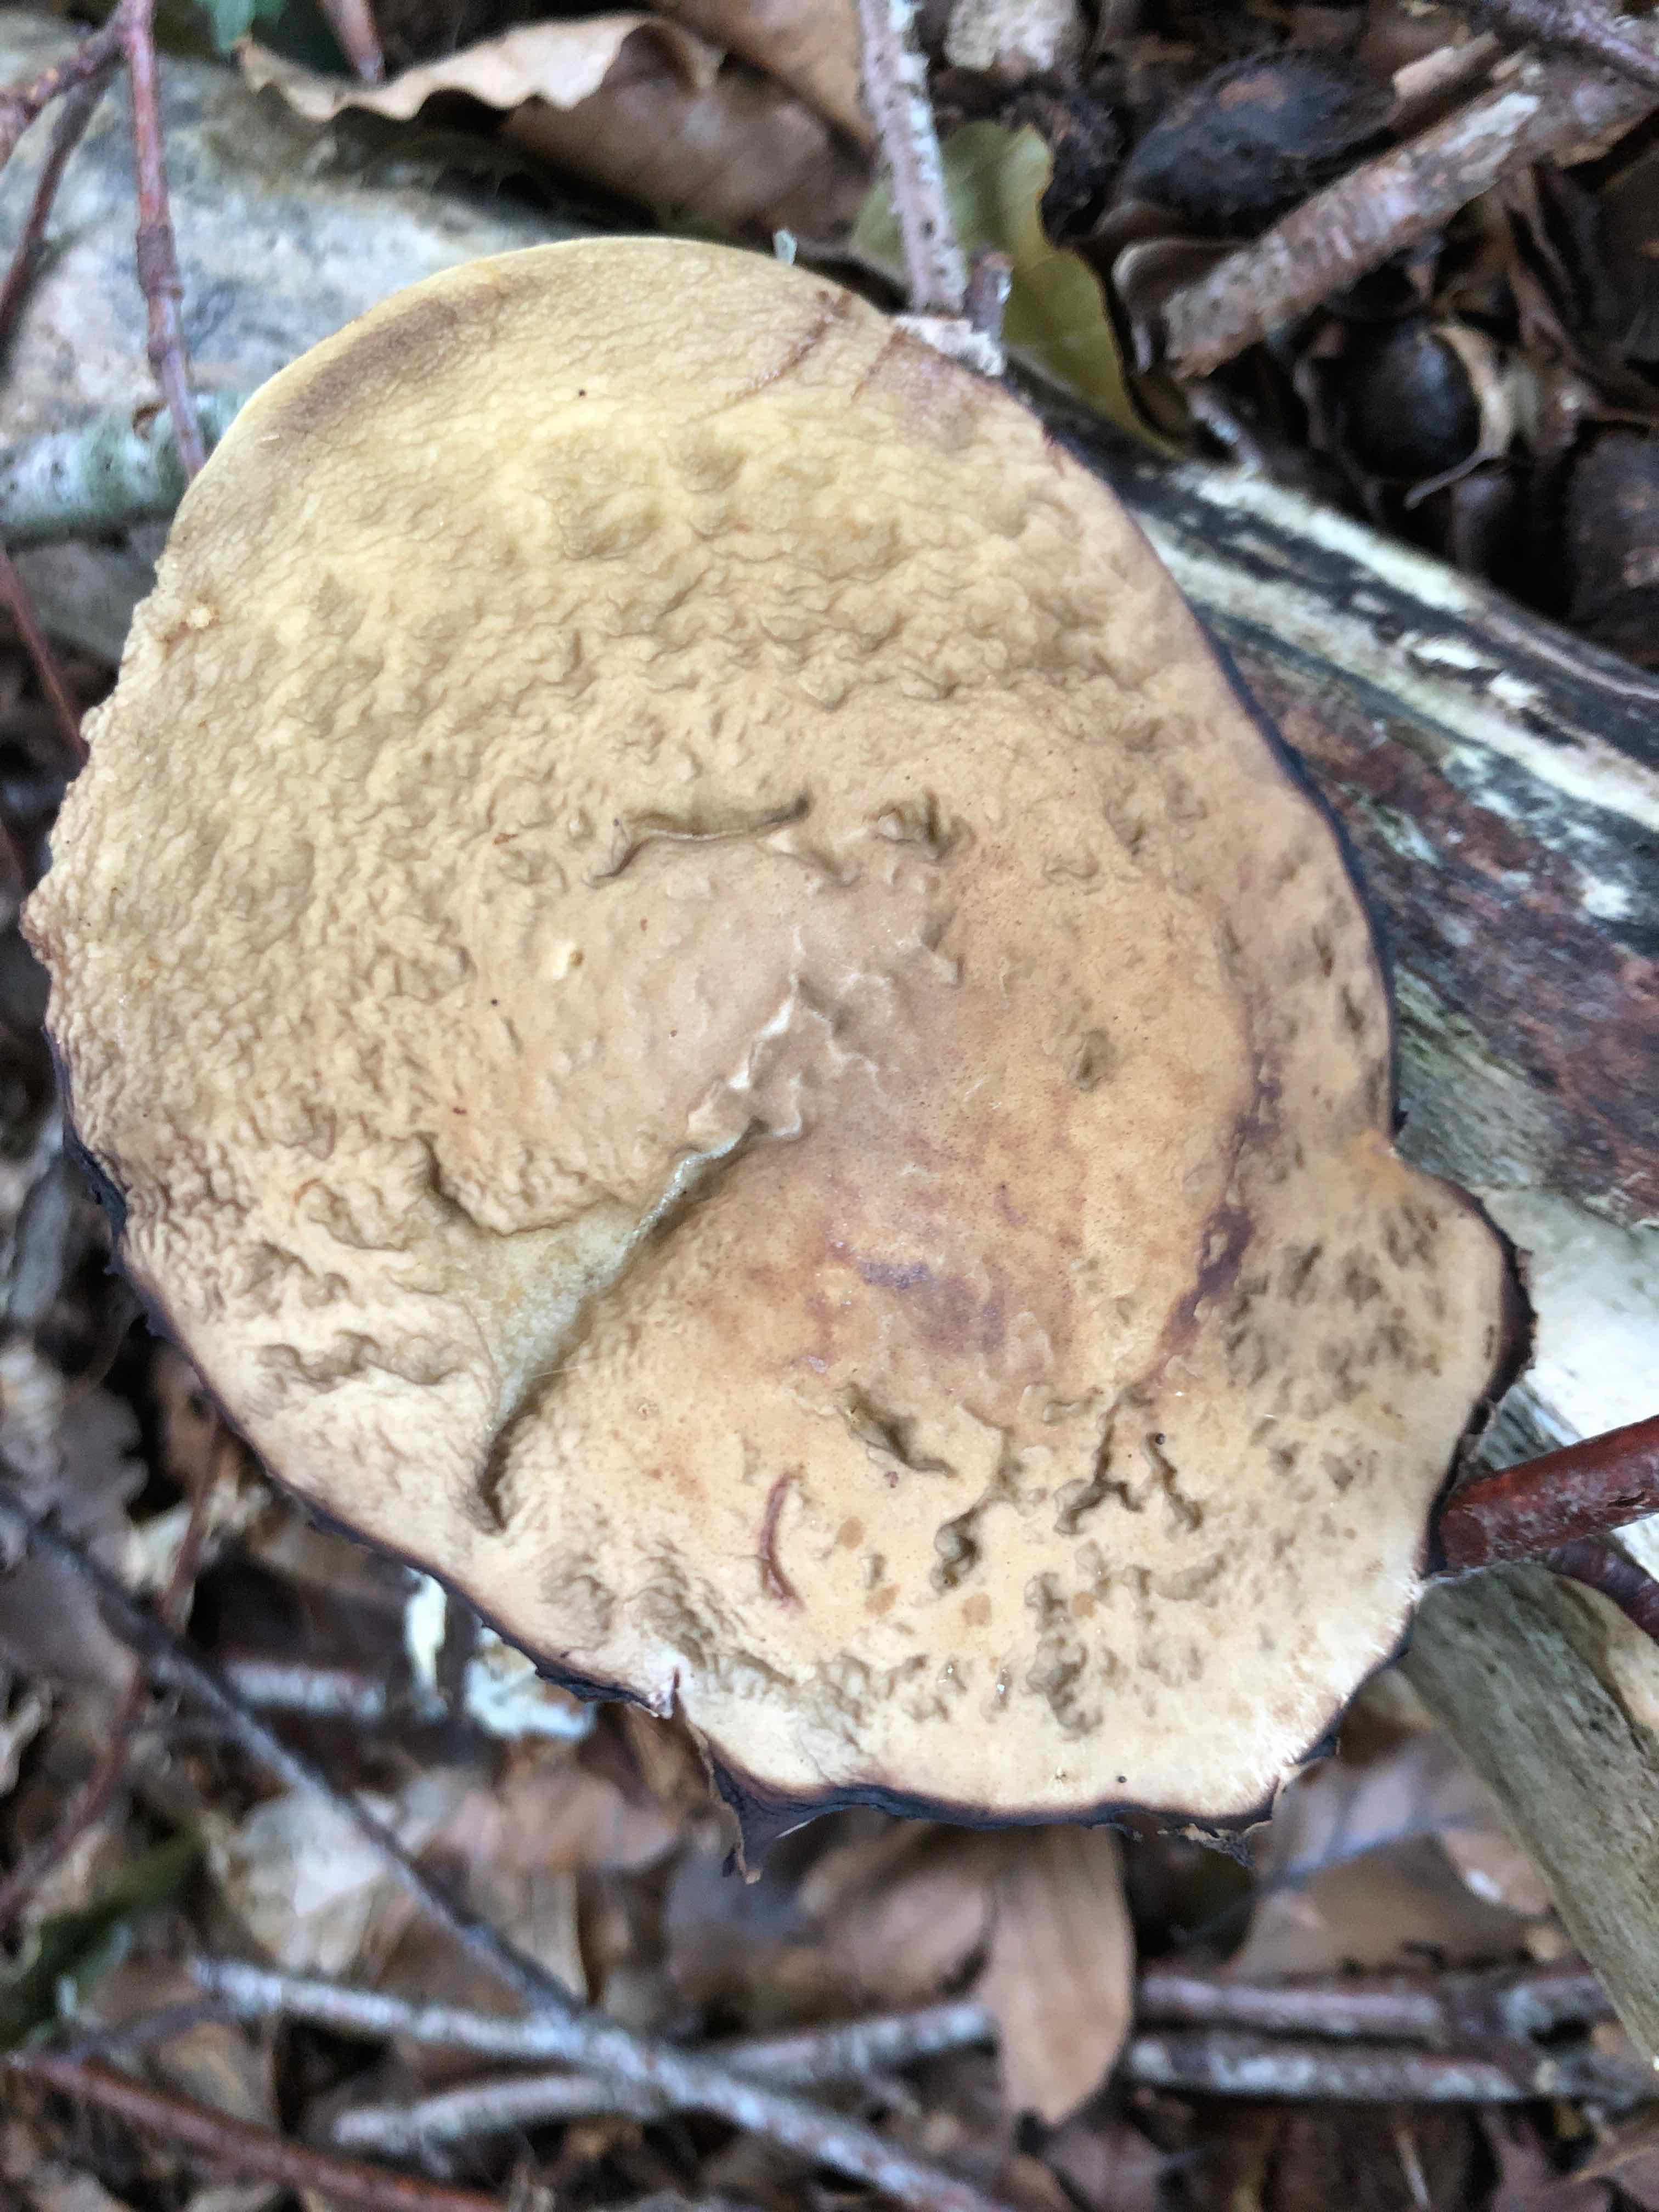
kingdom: Fungi
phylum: Basidiomycota
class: Agaricomycetes
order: Boletales
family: Boletaceae
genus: Leccinellum
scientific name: Leccinellum pseudoscabrum
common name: avnbøg-skælrørhat
